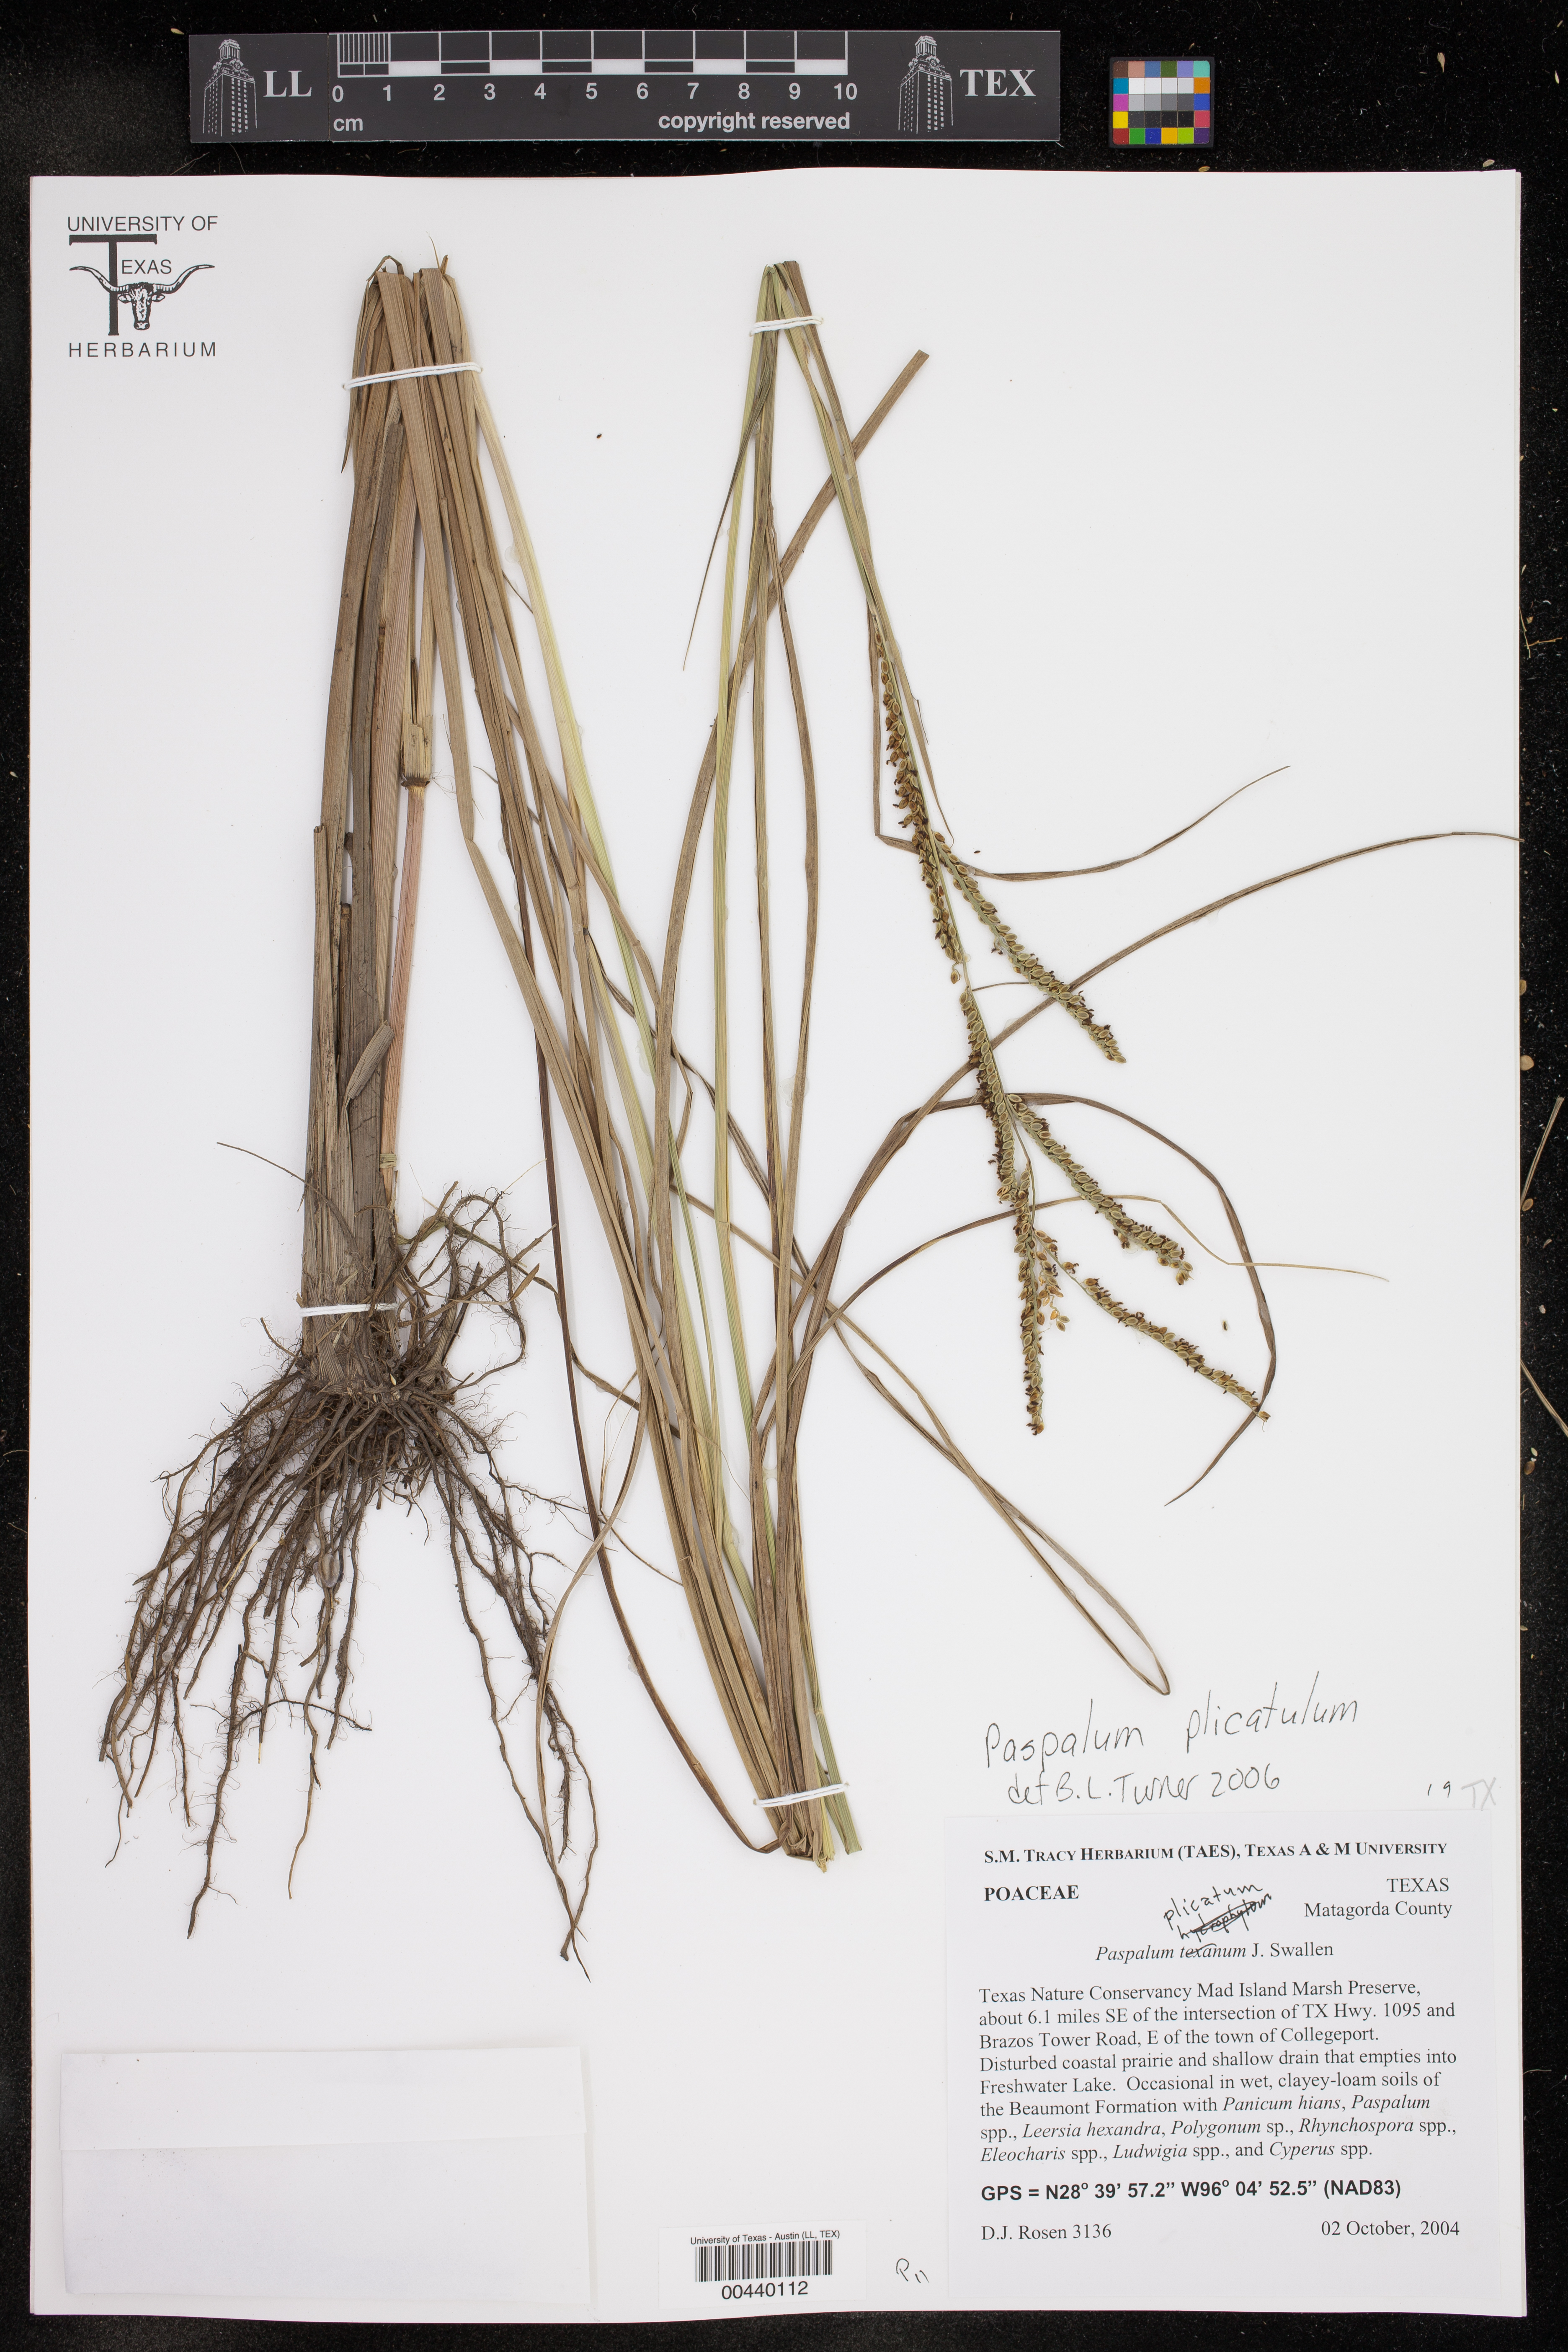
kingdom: Plantae
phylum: Tracheophyta
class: Liliopsida
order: Poales
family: Poaceae
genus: Paspalum
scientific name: Paspalum motembense
